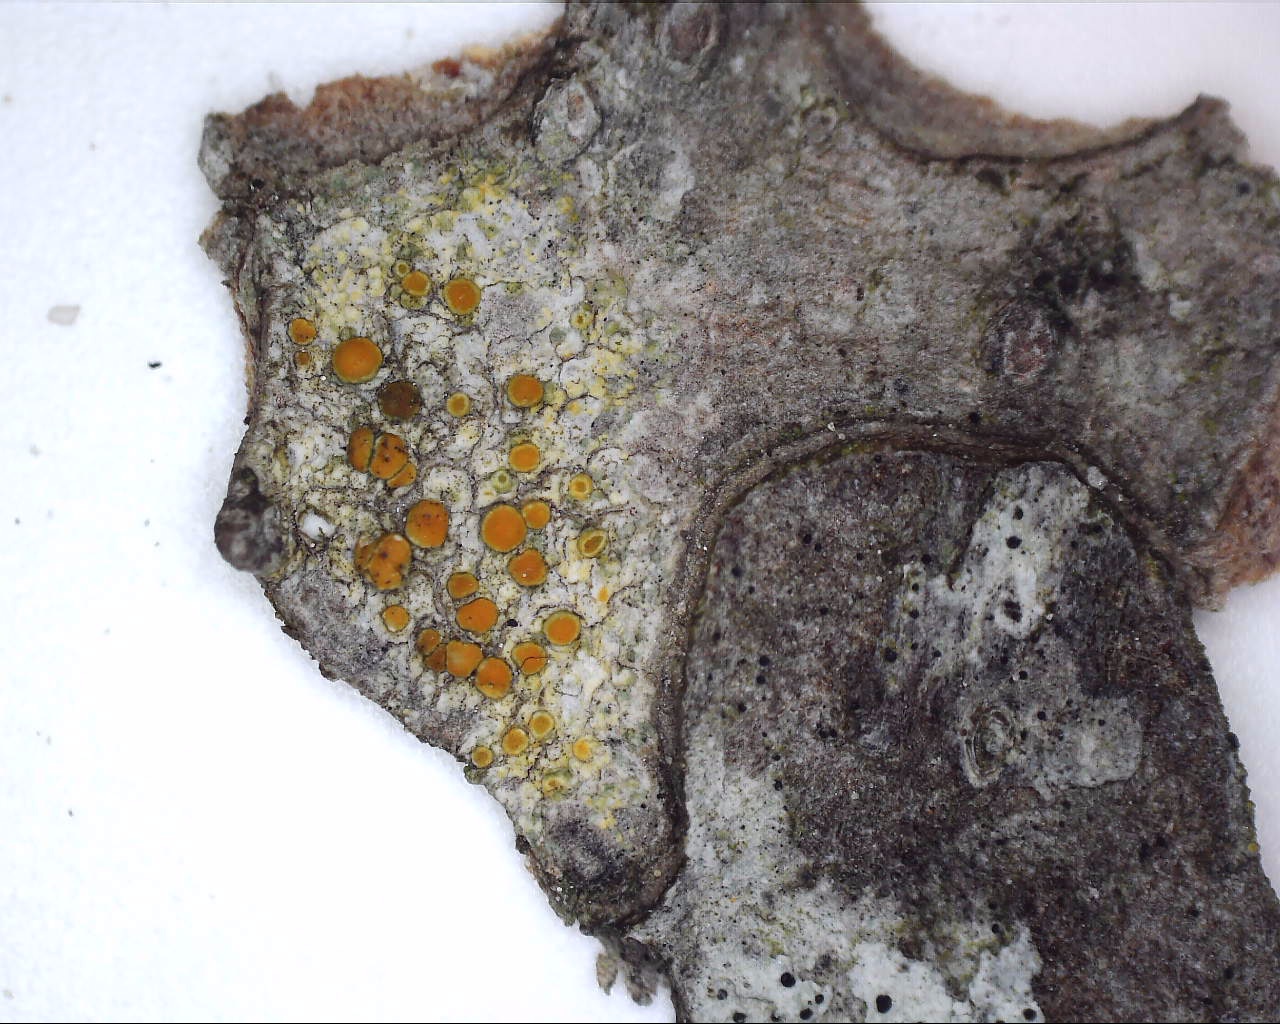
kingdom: Fungi
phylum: Ascomycota
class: Lecanoromycetes
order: Teloschistales
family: Teloschistaceae
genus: Caloplaca
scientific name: Caloplaca cerina
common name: voksgul orangelav
